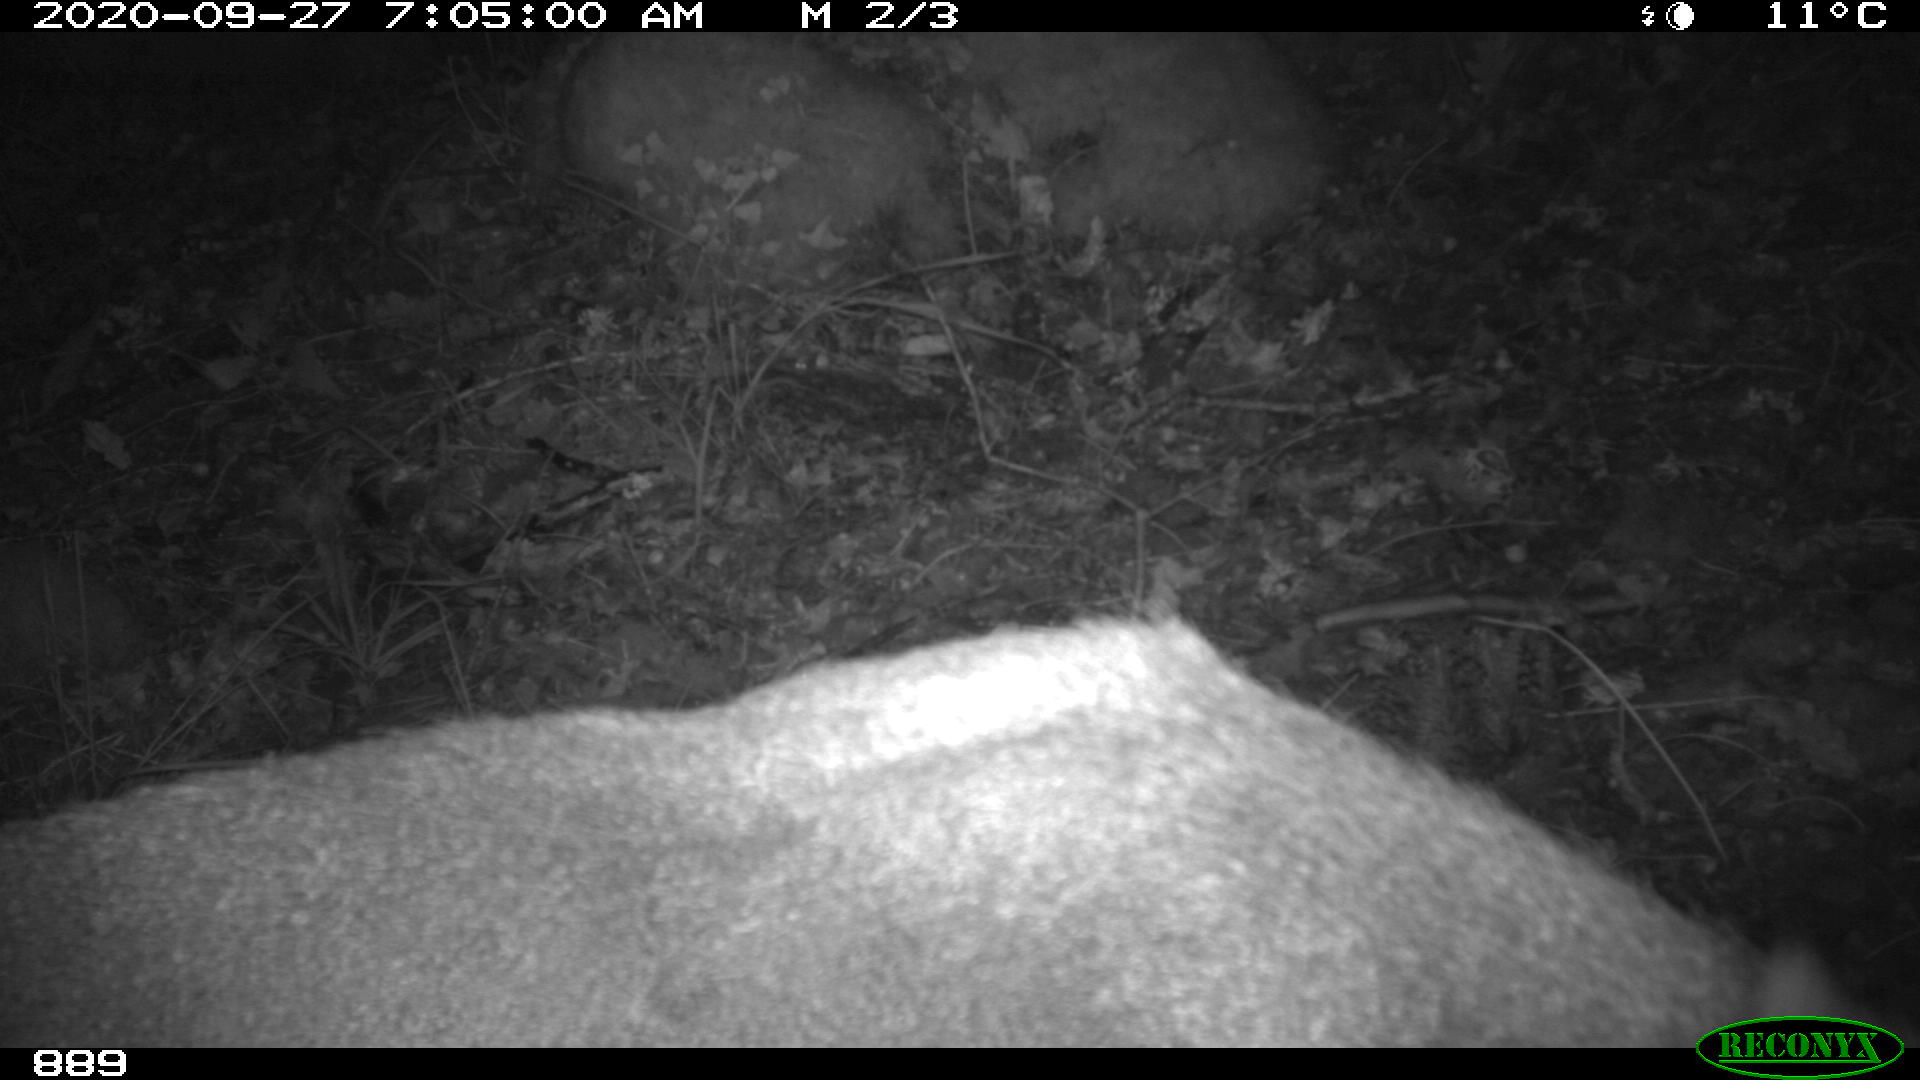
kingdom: Animalia
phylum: Chordata
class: Mammalia
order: Artiodactyla
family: Cervidae
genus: Capreolus
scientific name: Capreolus capreolus
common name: Western roe deer
